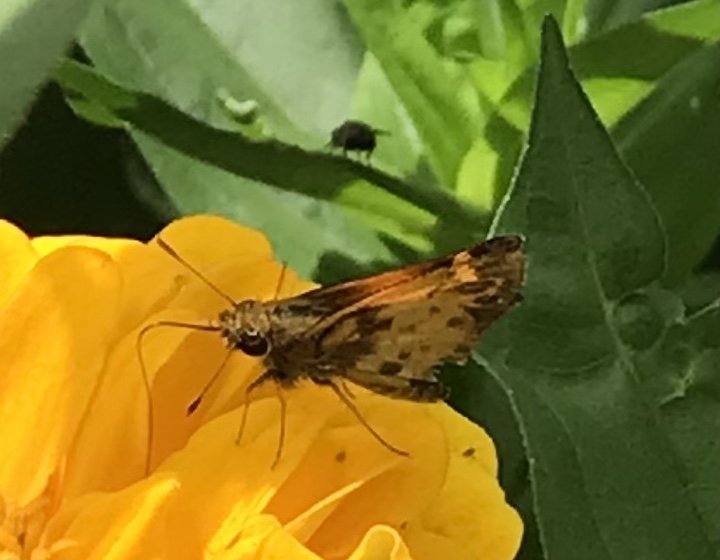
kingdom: Animalia
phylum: Arthropoda
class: Insecta
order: Lepidoptera
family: Hesperiidae
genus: Lon
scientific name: Lon zabulon
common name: Zabulon Skipper
